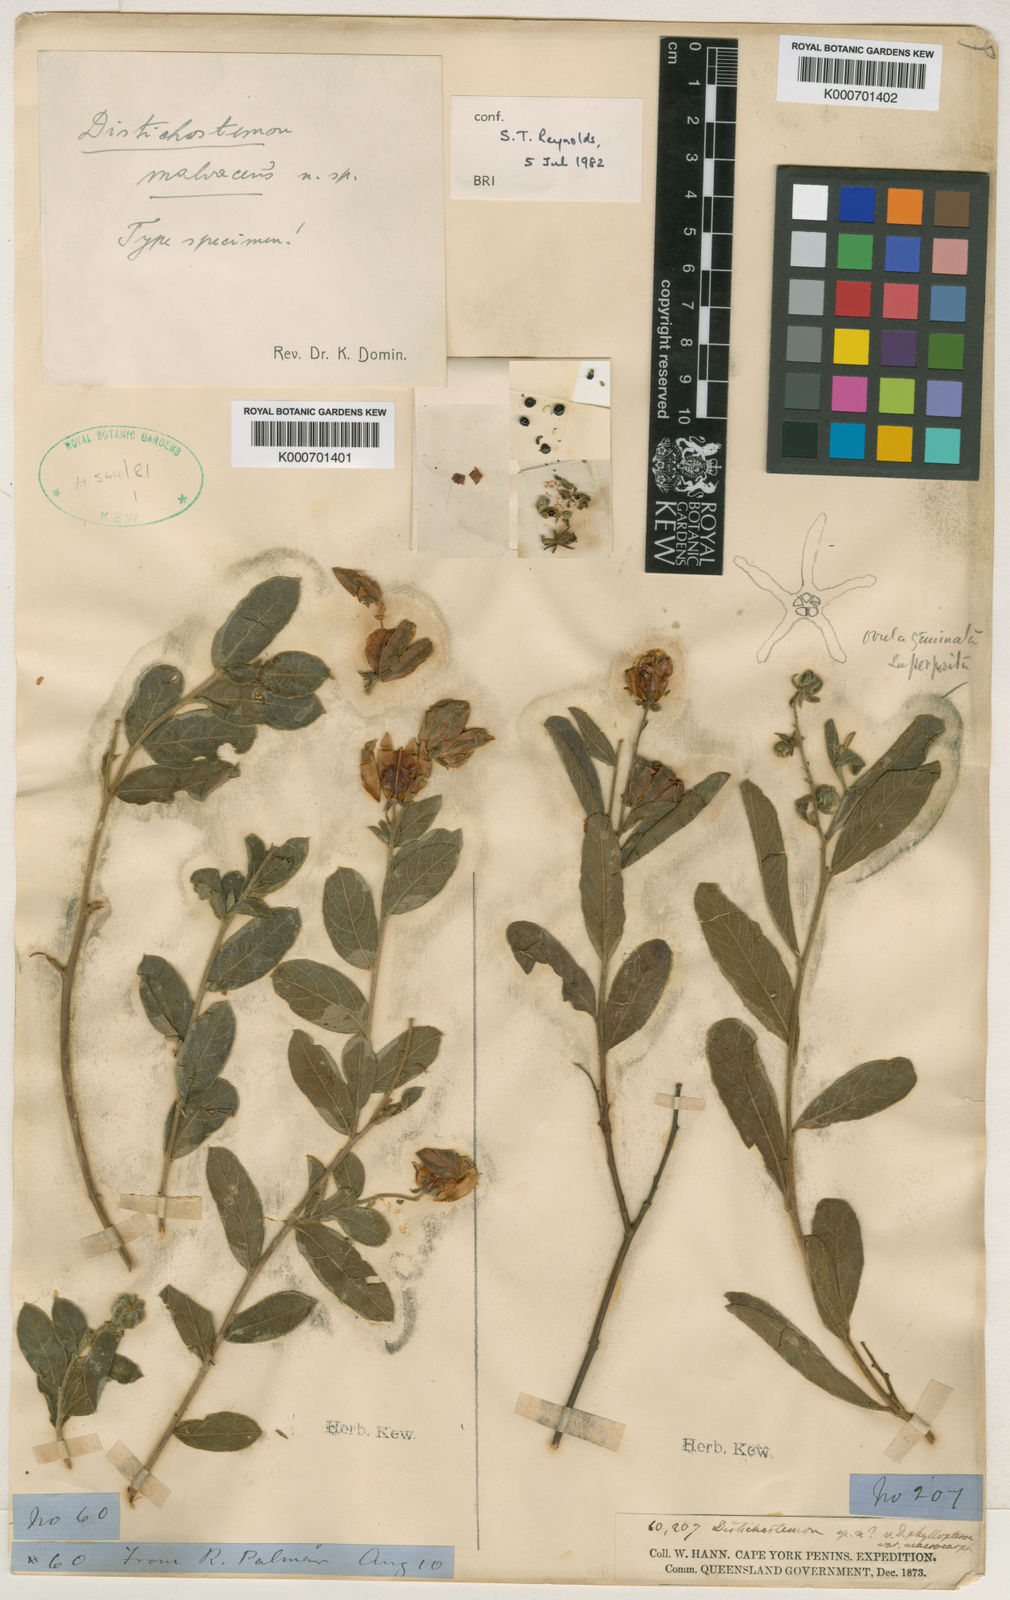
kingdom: Plantae
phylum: Tracheophyta
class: Magnoliopsida
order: Sapindales
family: Sapindaceae
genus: Dodonaea
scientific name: Dodonaea malvacea
